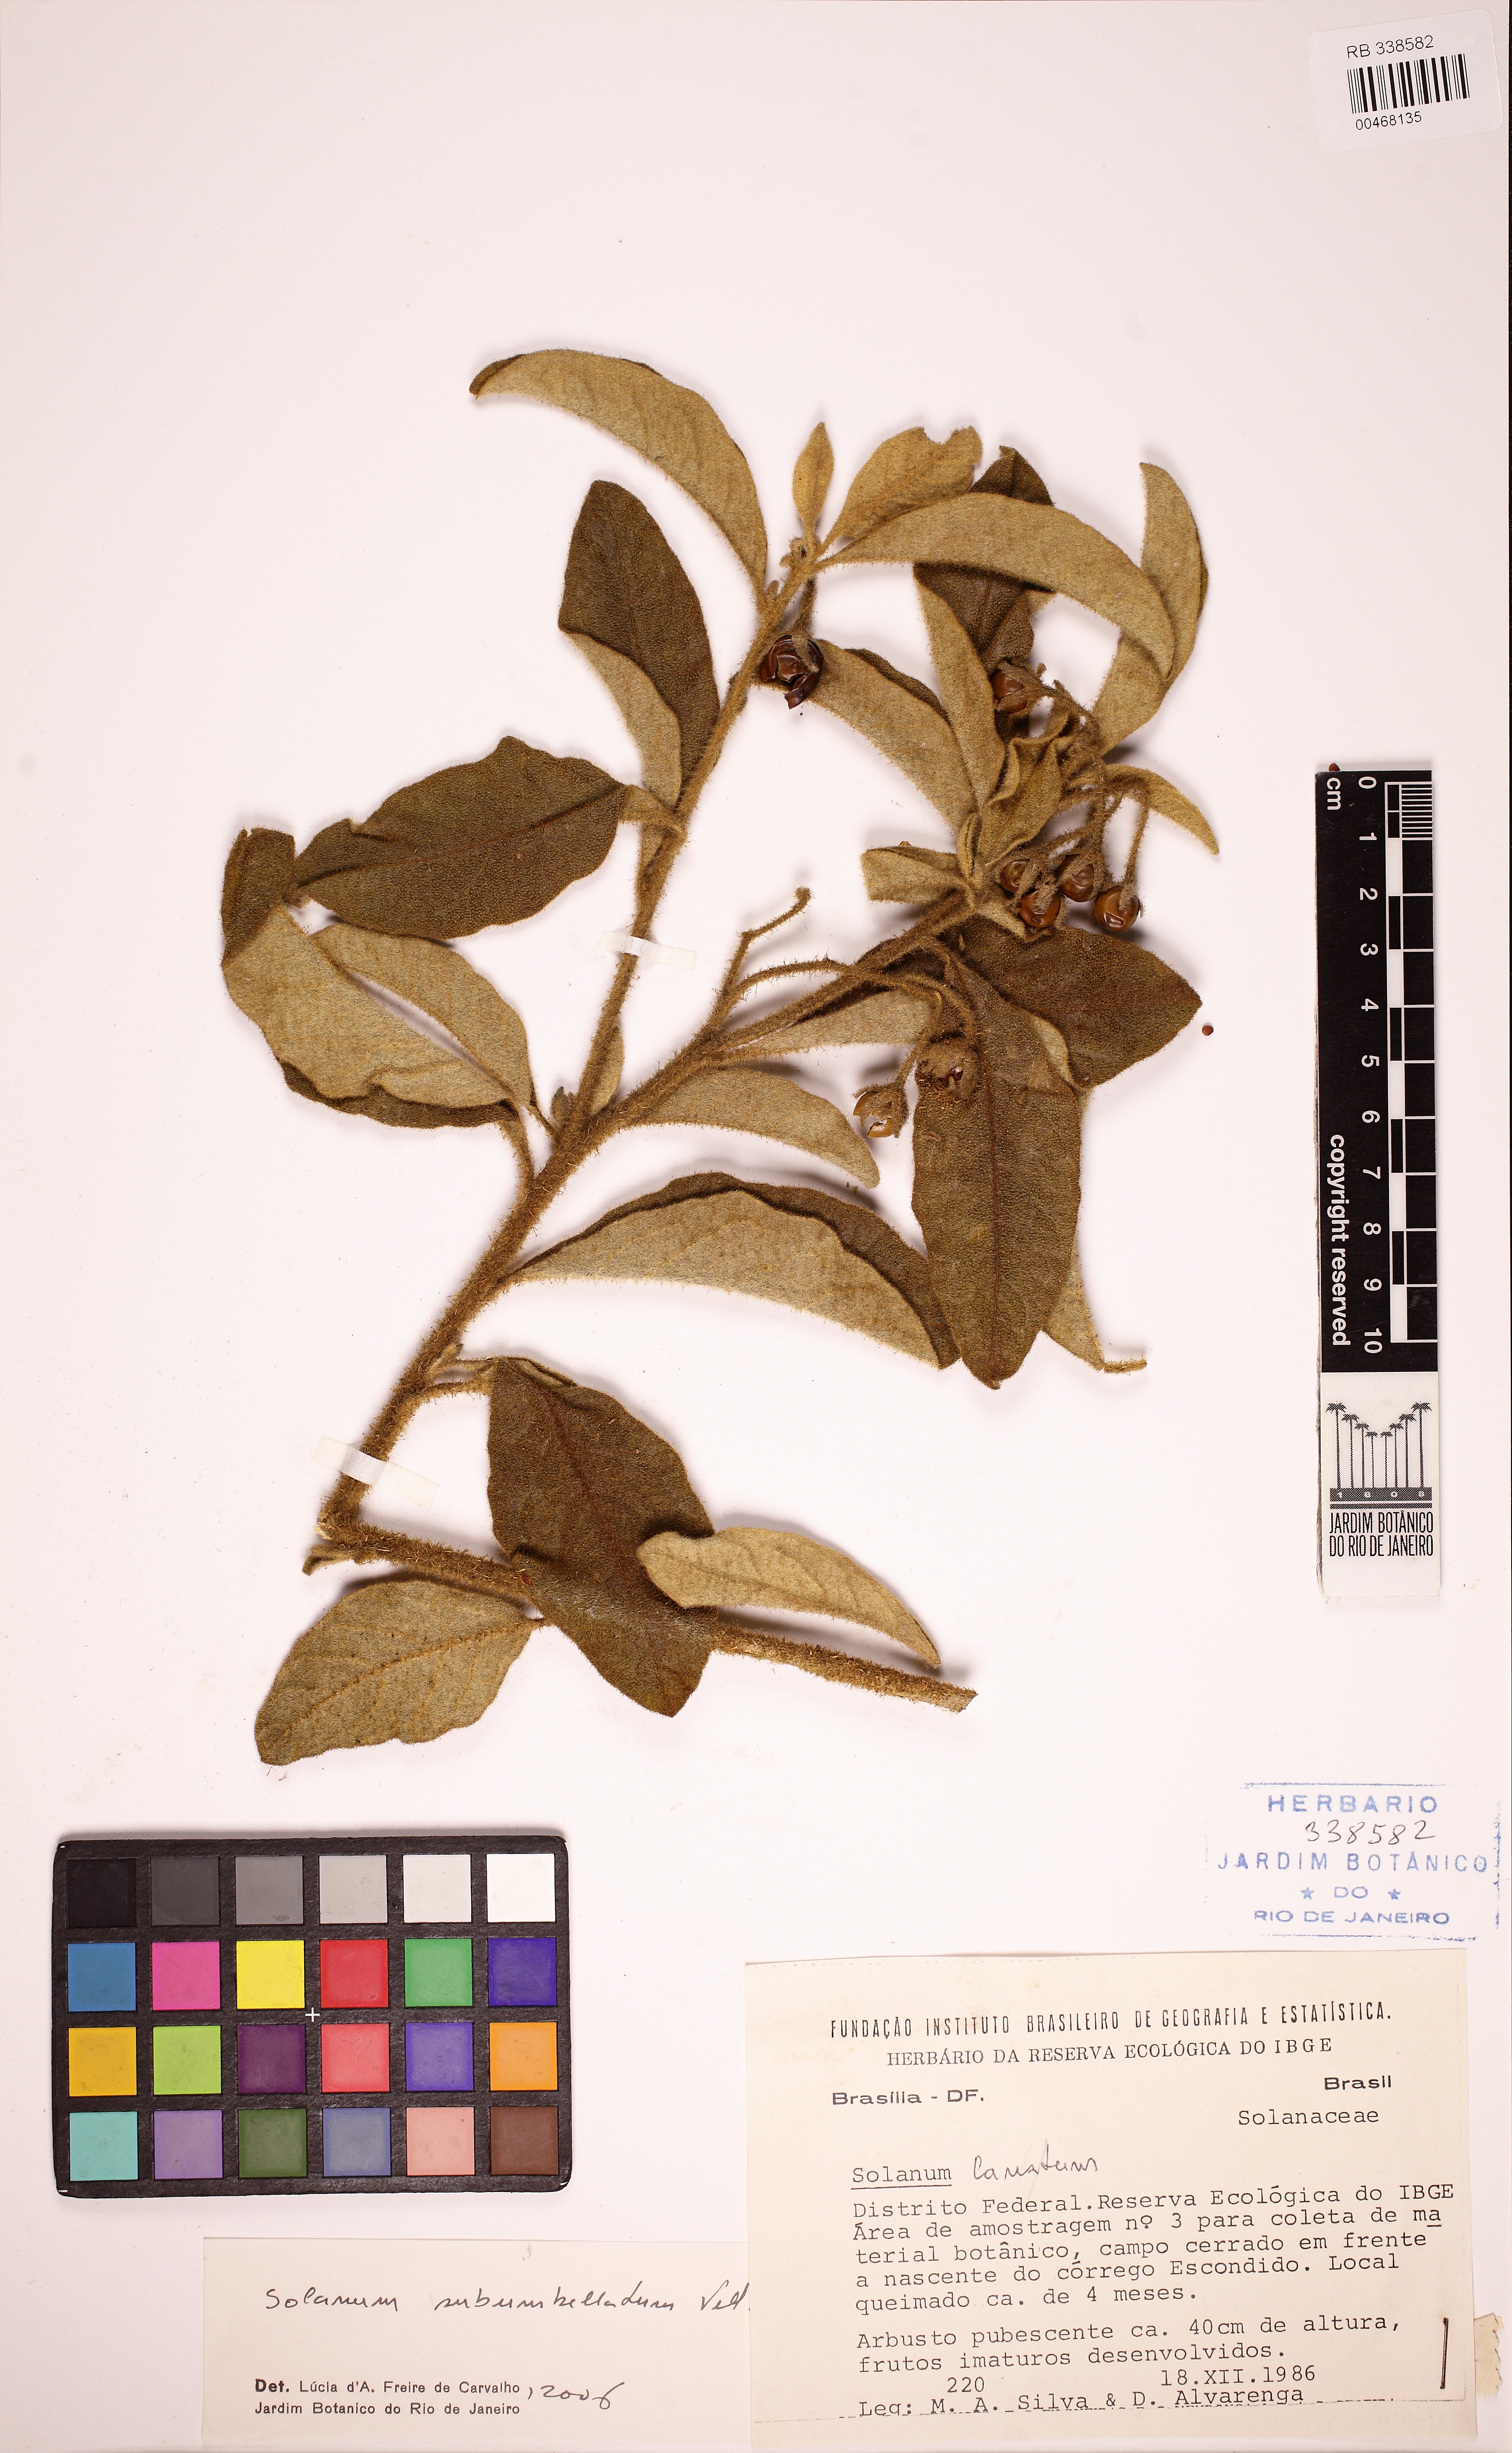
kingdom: Plantae
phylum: Tracheophyta
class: Magnoliopsida
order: Solanales
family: Solanaceae
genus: Solanum
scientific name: Solanum subumbellatum
